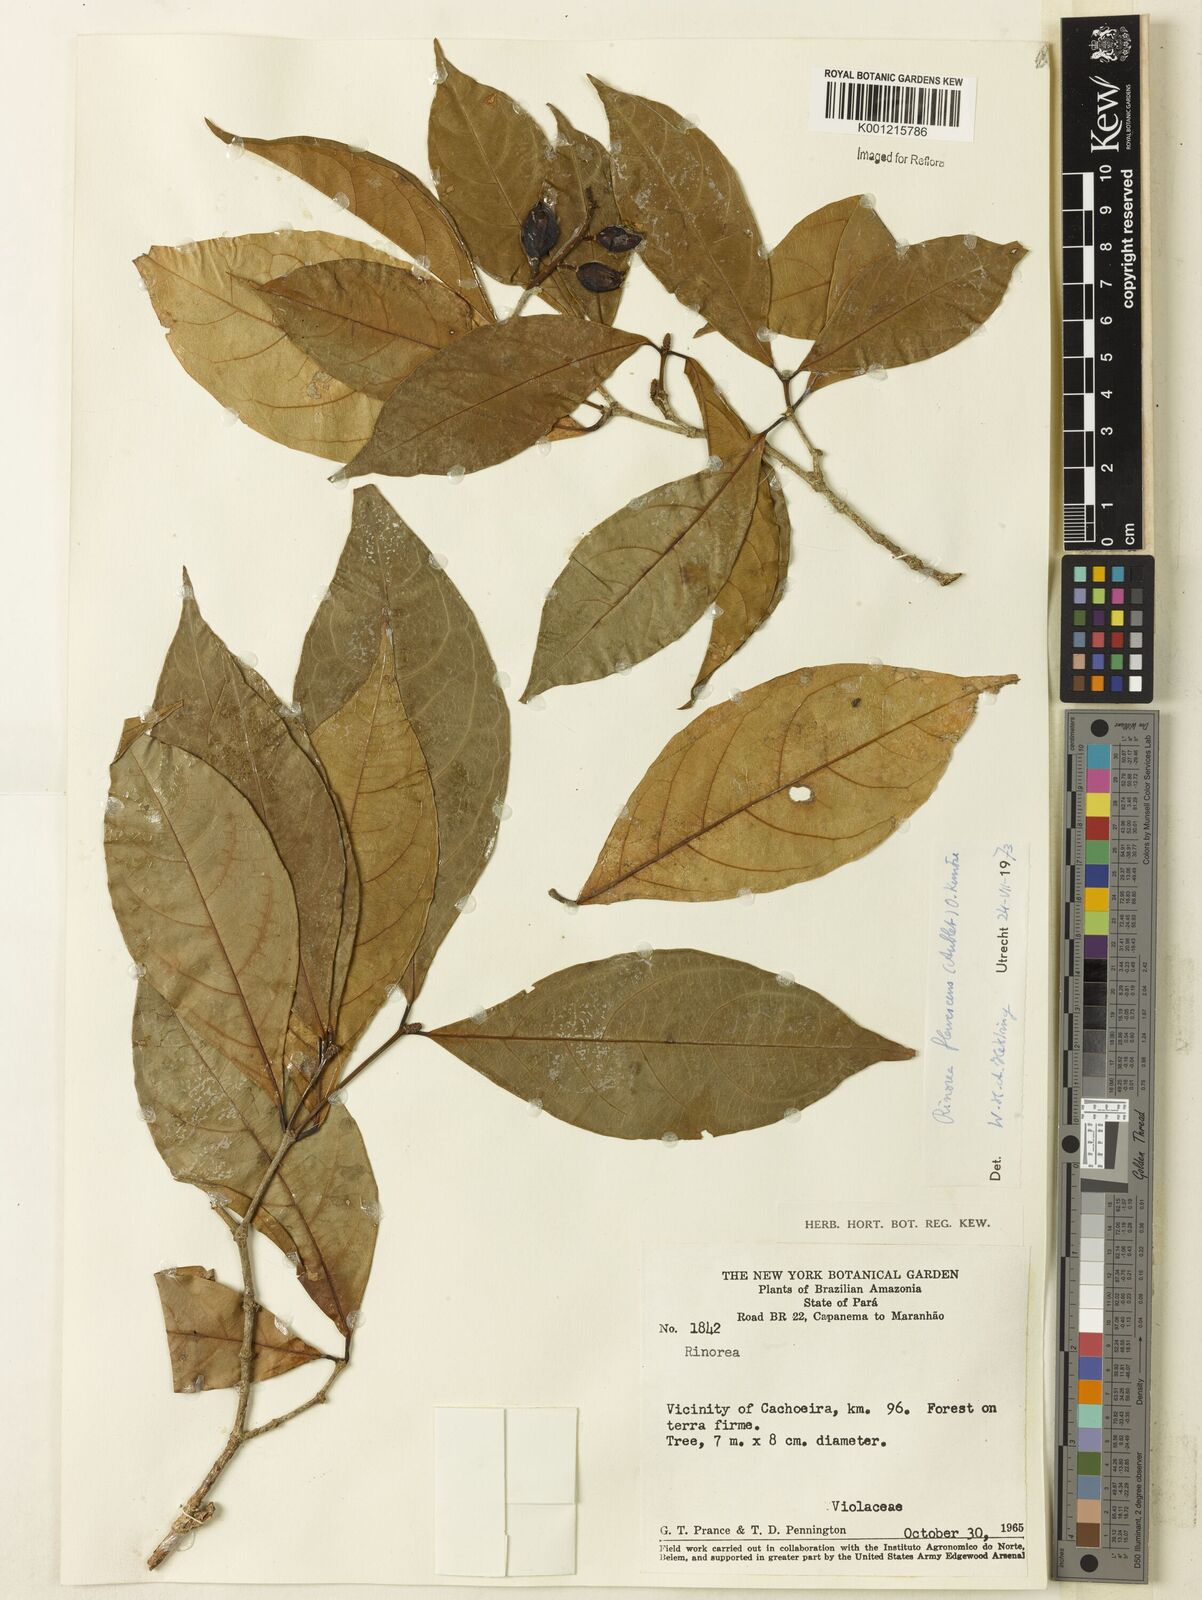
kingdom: Plantae
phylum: Tracheophyta
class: Magnoliopsida
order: Malpighiales
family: Violaceae
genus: Rinorea
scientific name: Rinorea flavescens
